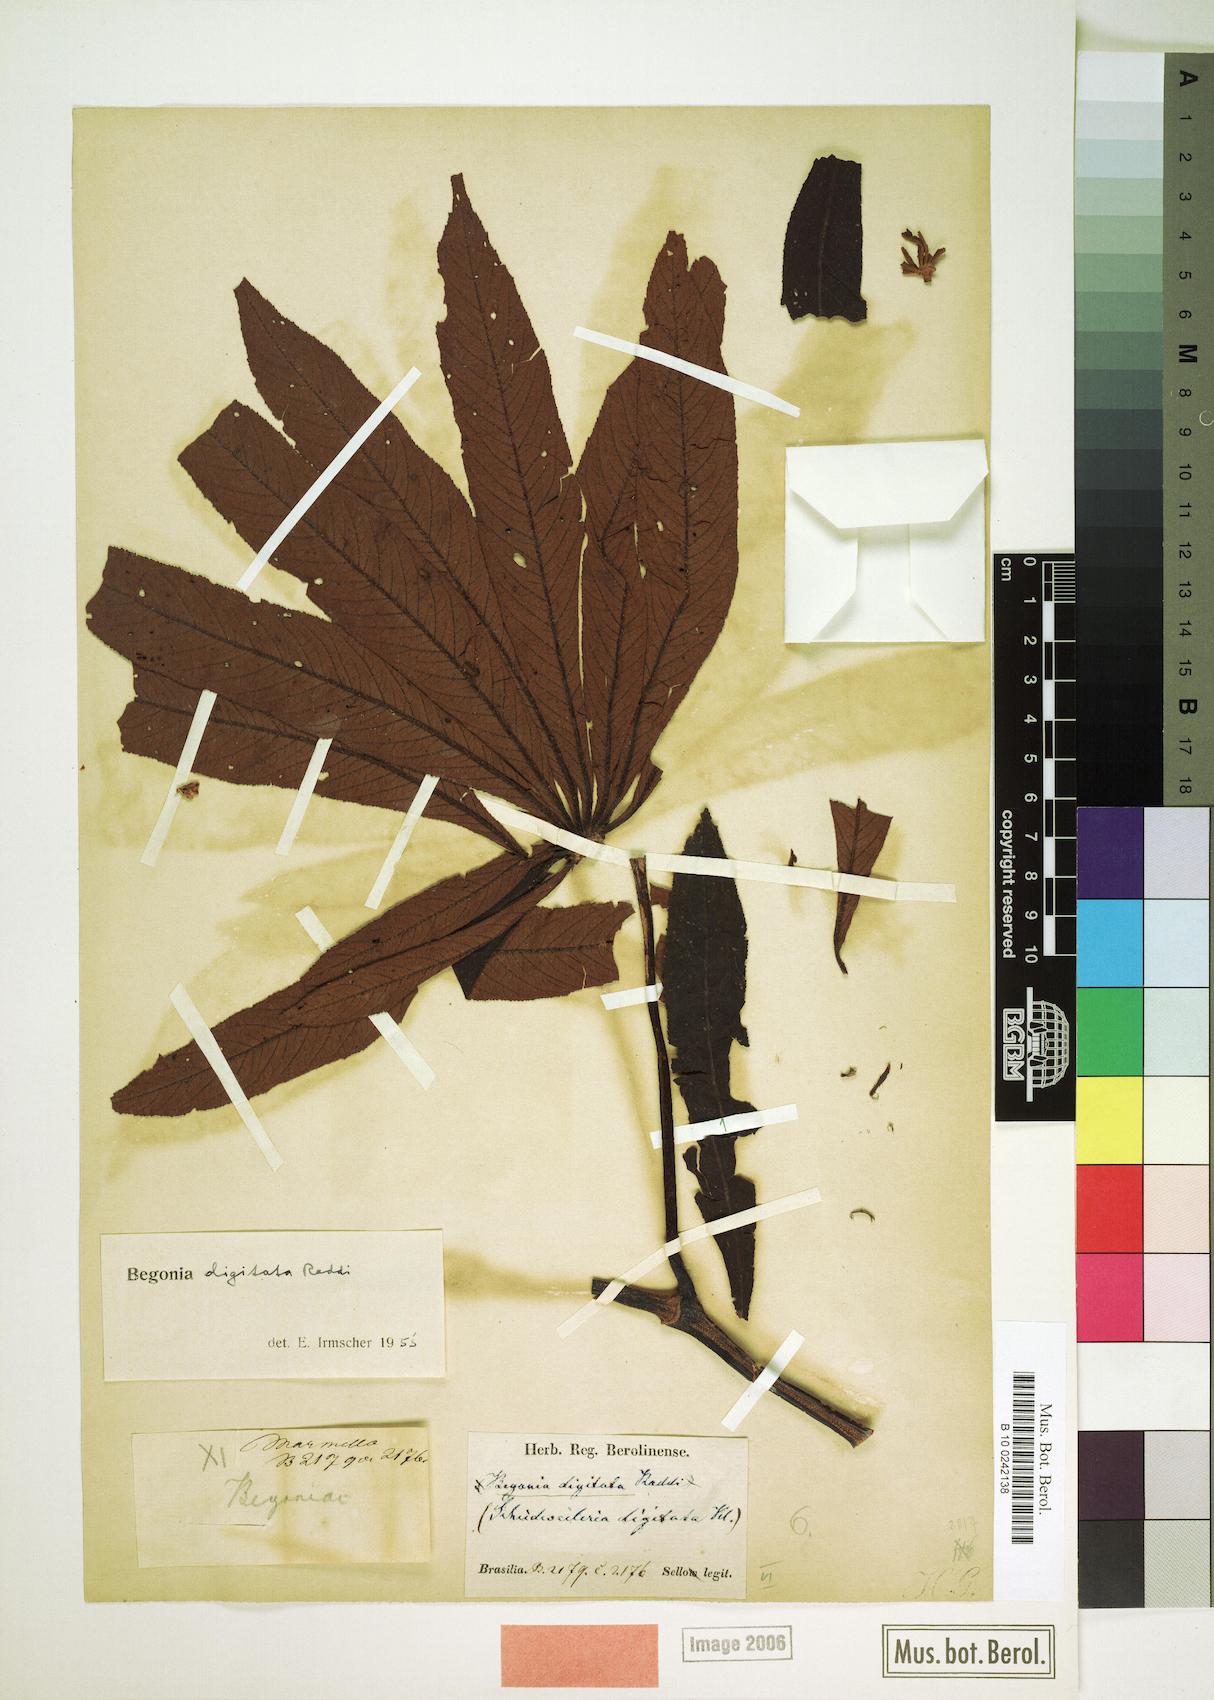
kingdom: Plantae
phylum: Tracheophyta
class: Magnoliopsida
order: Cucurbitales
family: Begoniaceae
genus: Begonia
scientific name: Begonia digitata
